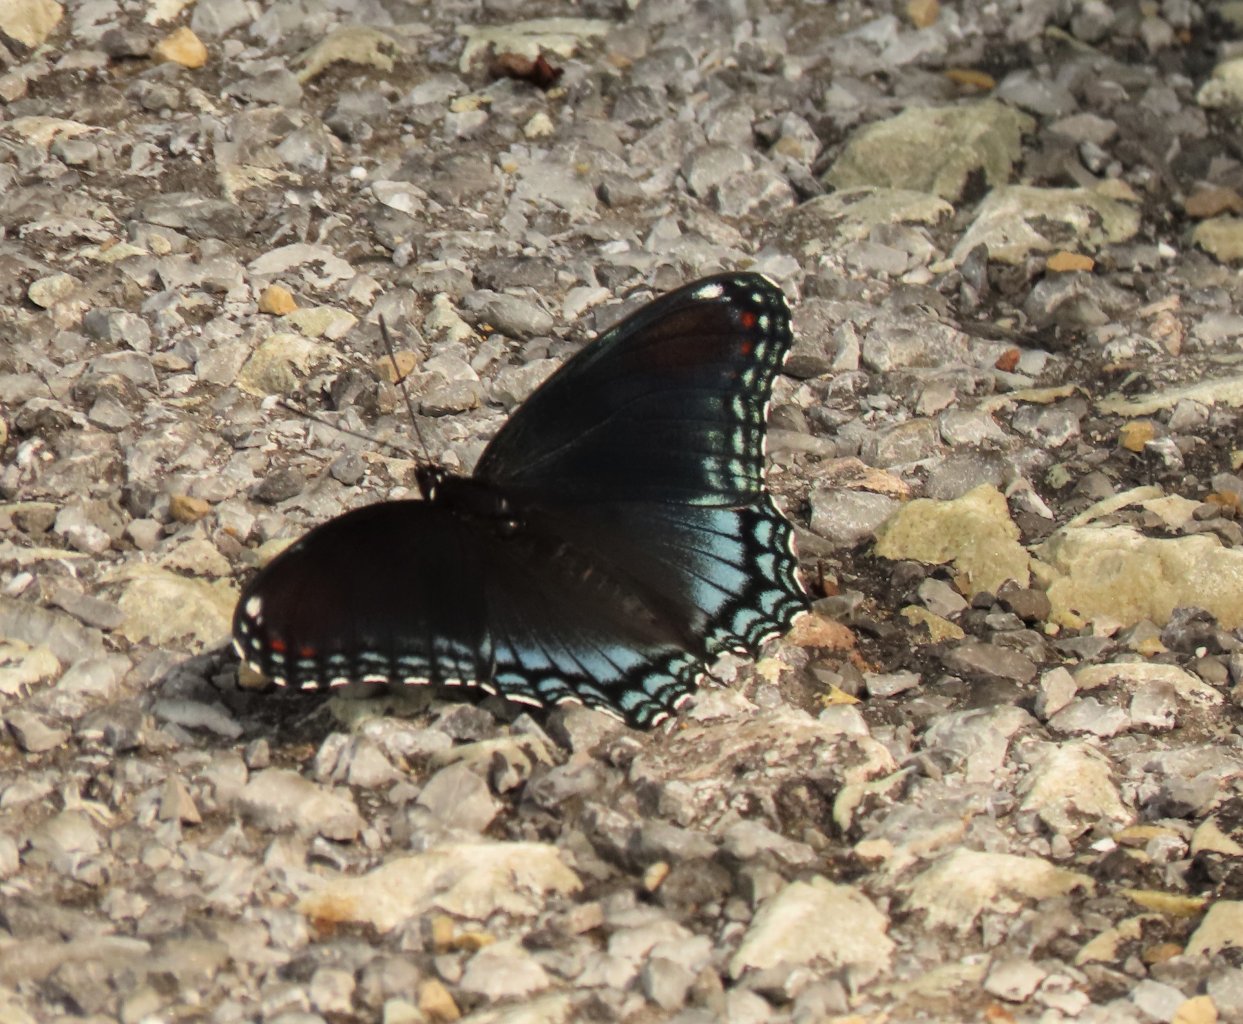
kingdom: Animalia
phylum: Arthropoda
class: Insecta
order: Lepidoptera
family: Nymphalidae
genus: Limenitis
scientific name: Limenitis astyanax
